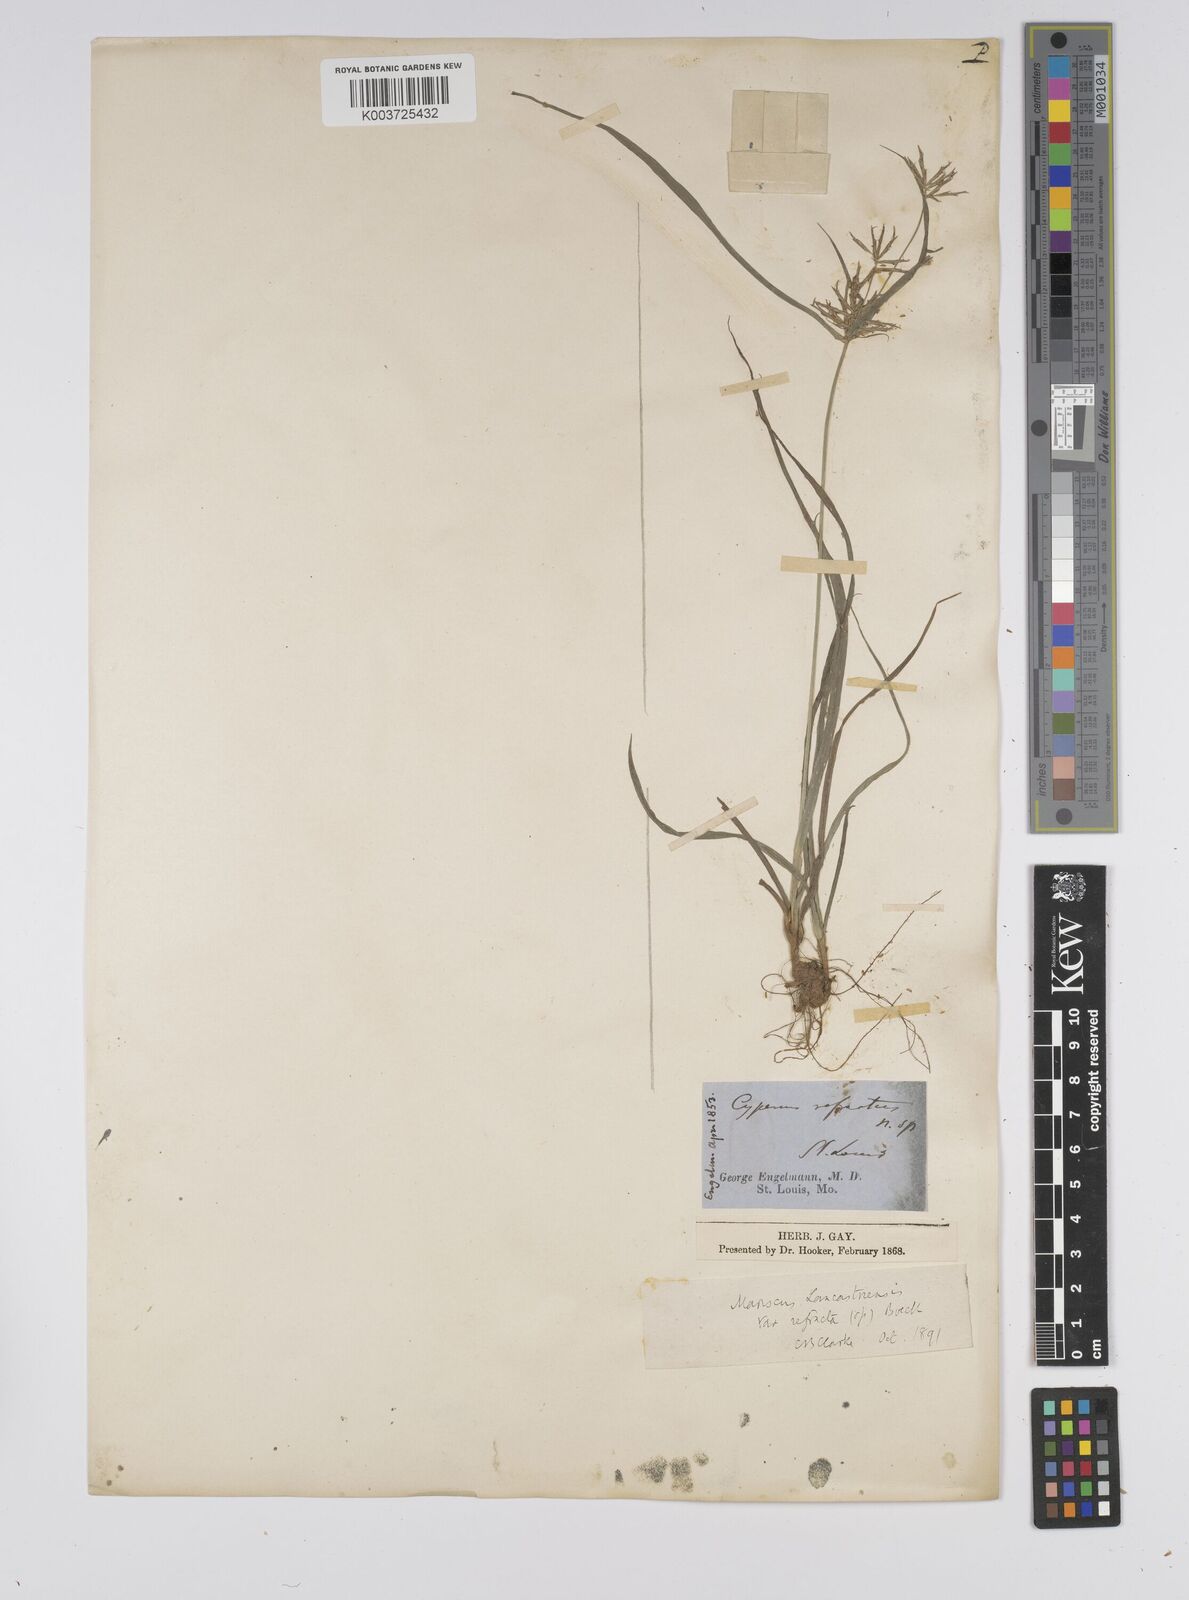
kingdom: Plantae
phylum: Tracheophyta
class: Liliopsida
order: Poales
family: Cyperaceae
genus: Cyperus
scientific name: Cyperus refractus
